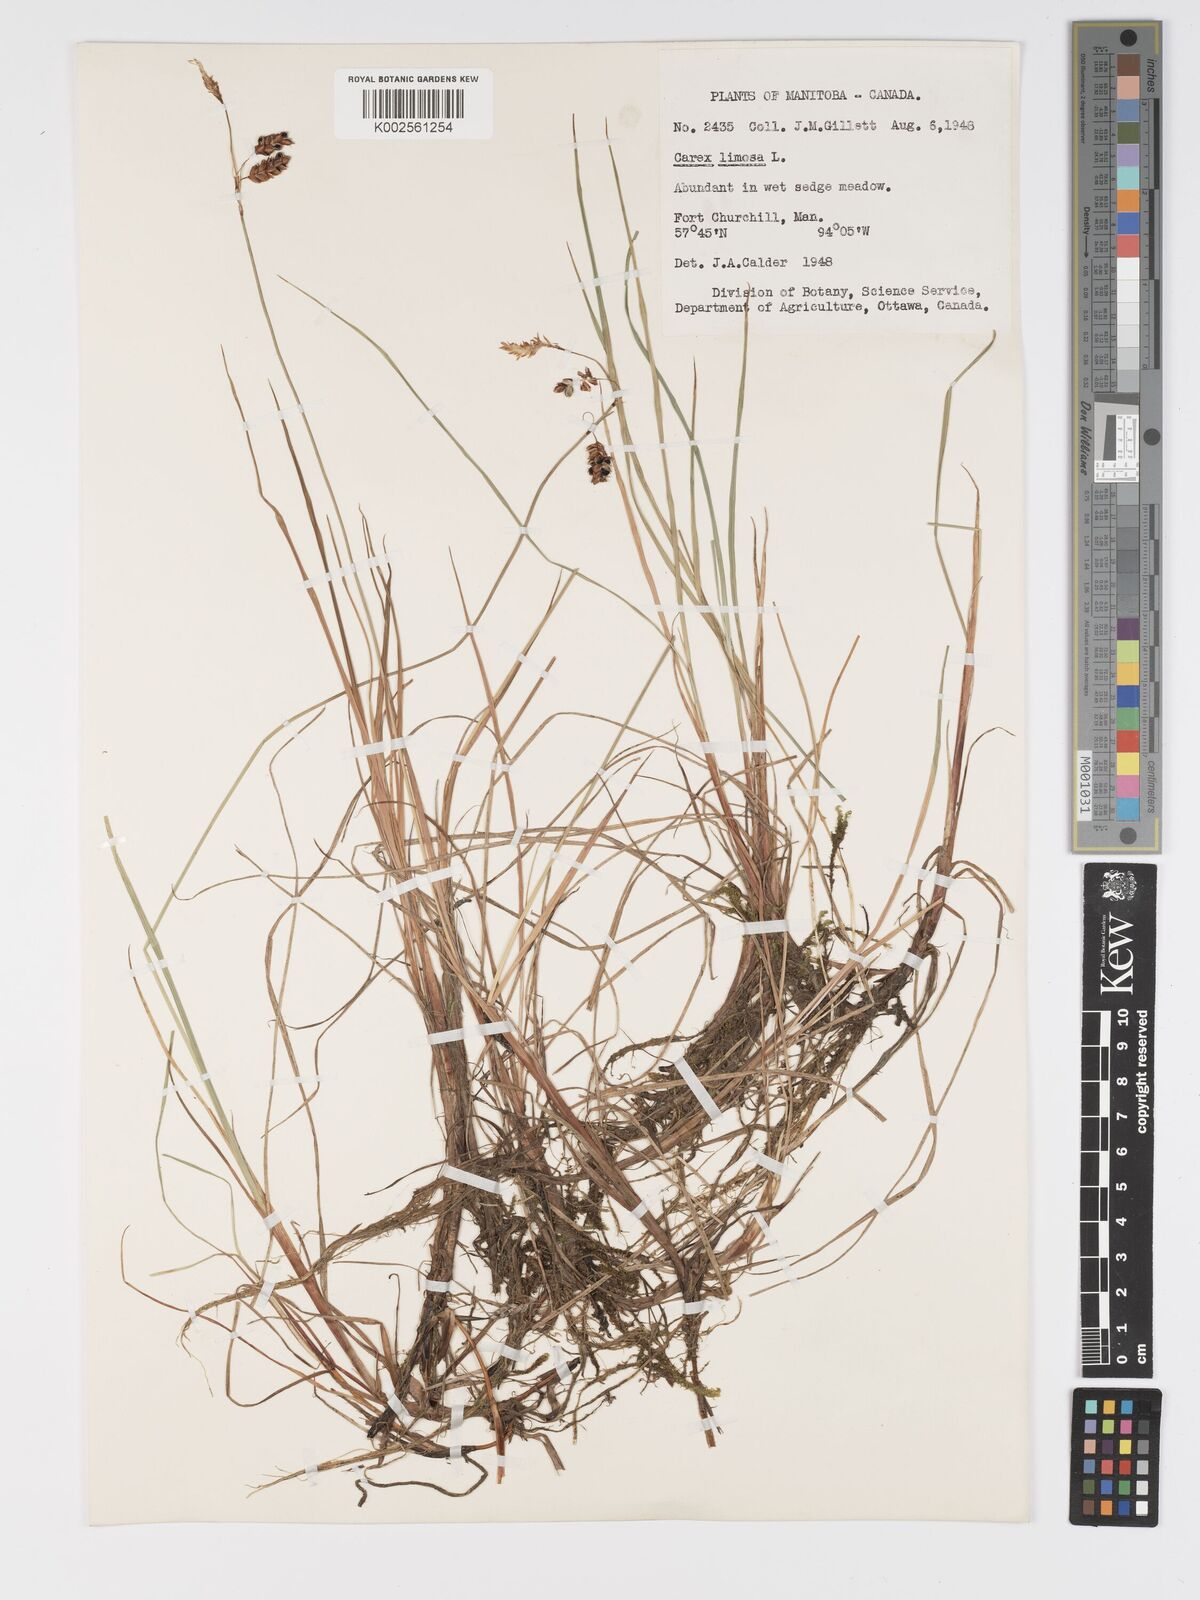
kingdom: Plantae
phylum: Tracheophyta
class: Liliopsida
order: Poales
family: Cyperaceae
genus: Carex
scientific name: Carex limosa
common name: Bog sedge
